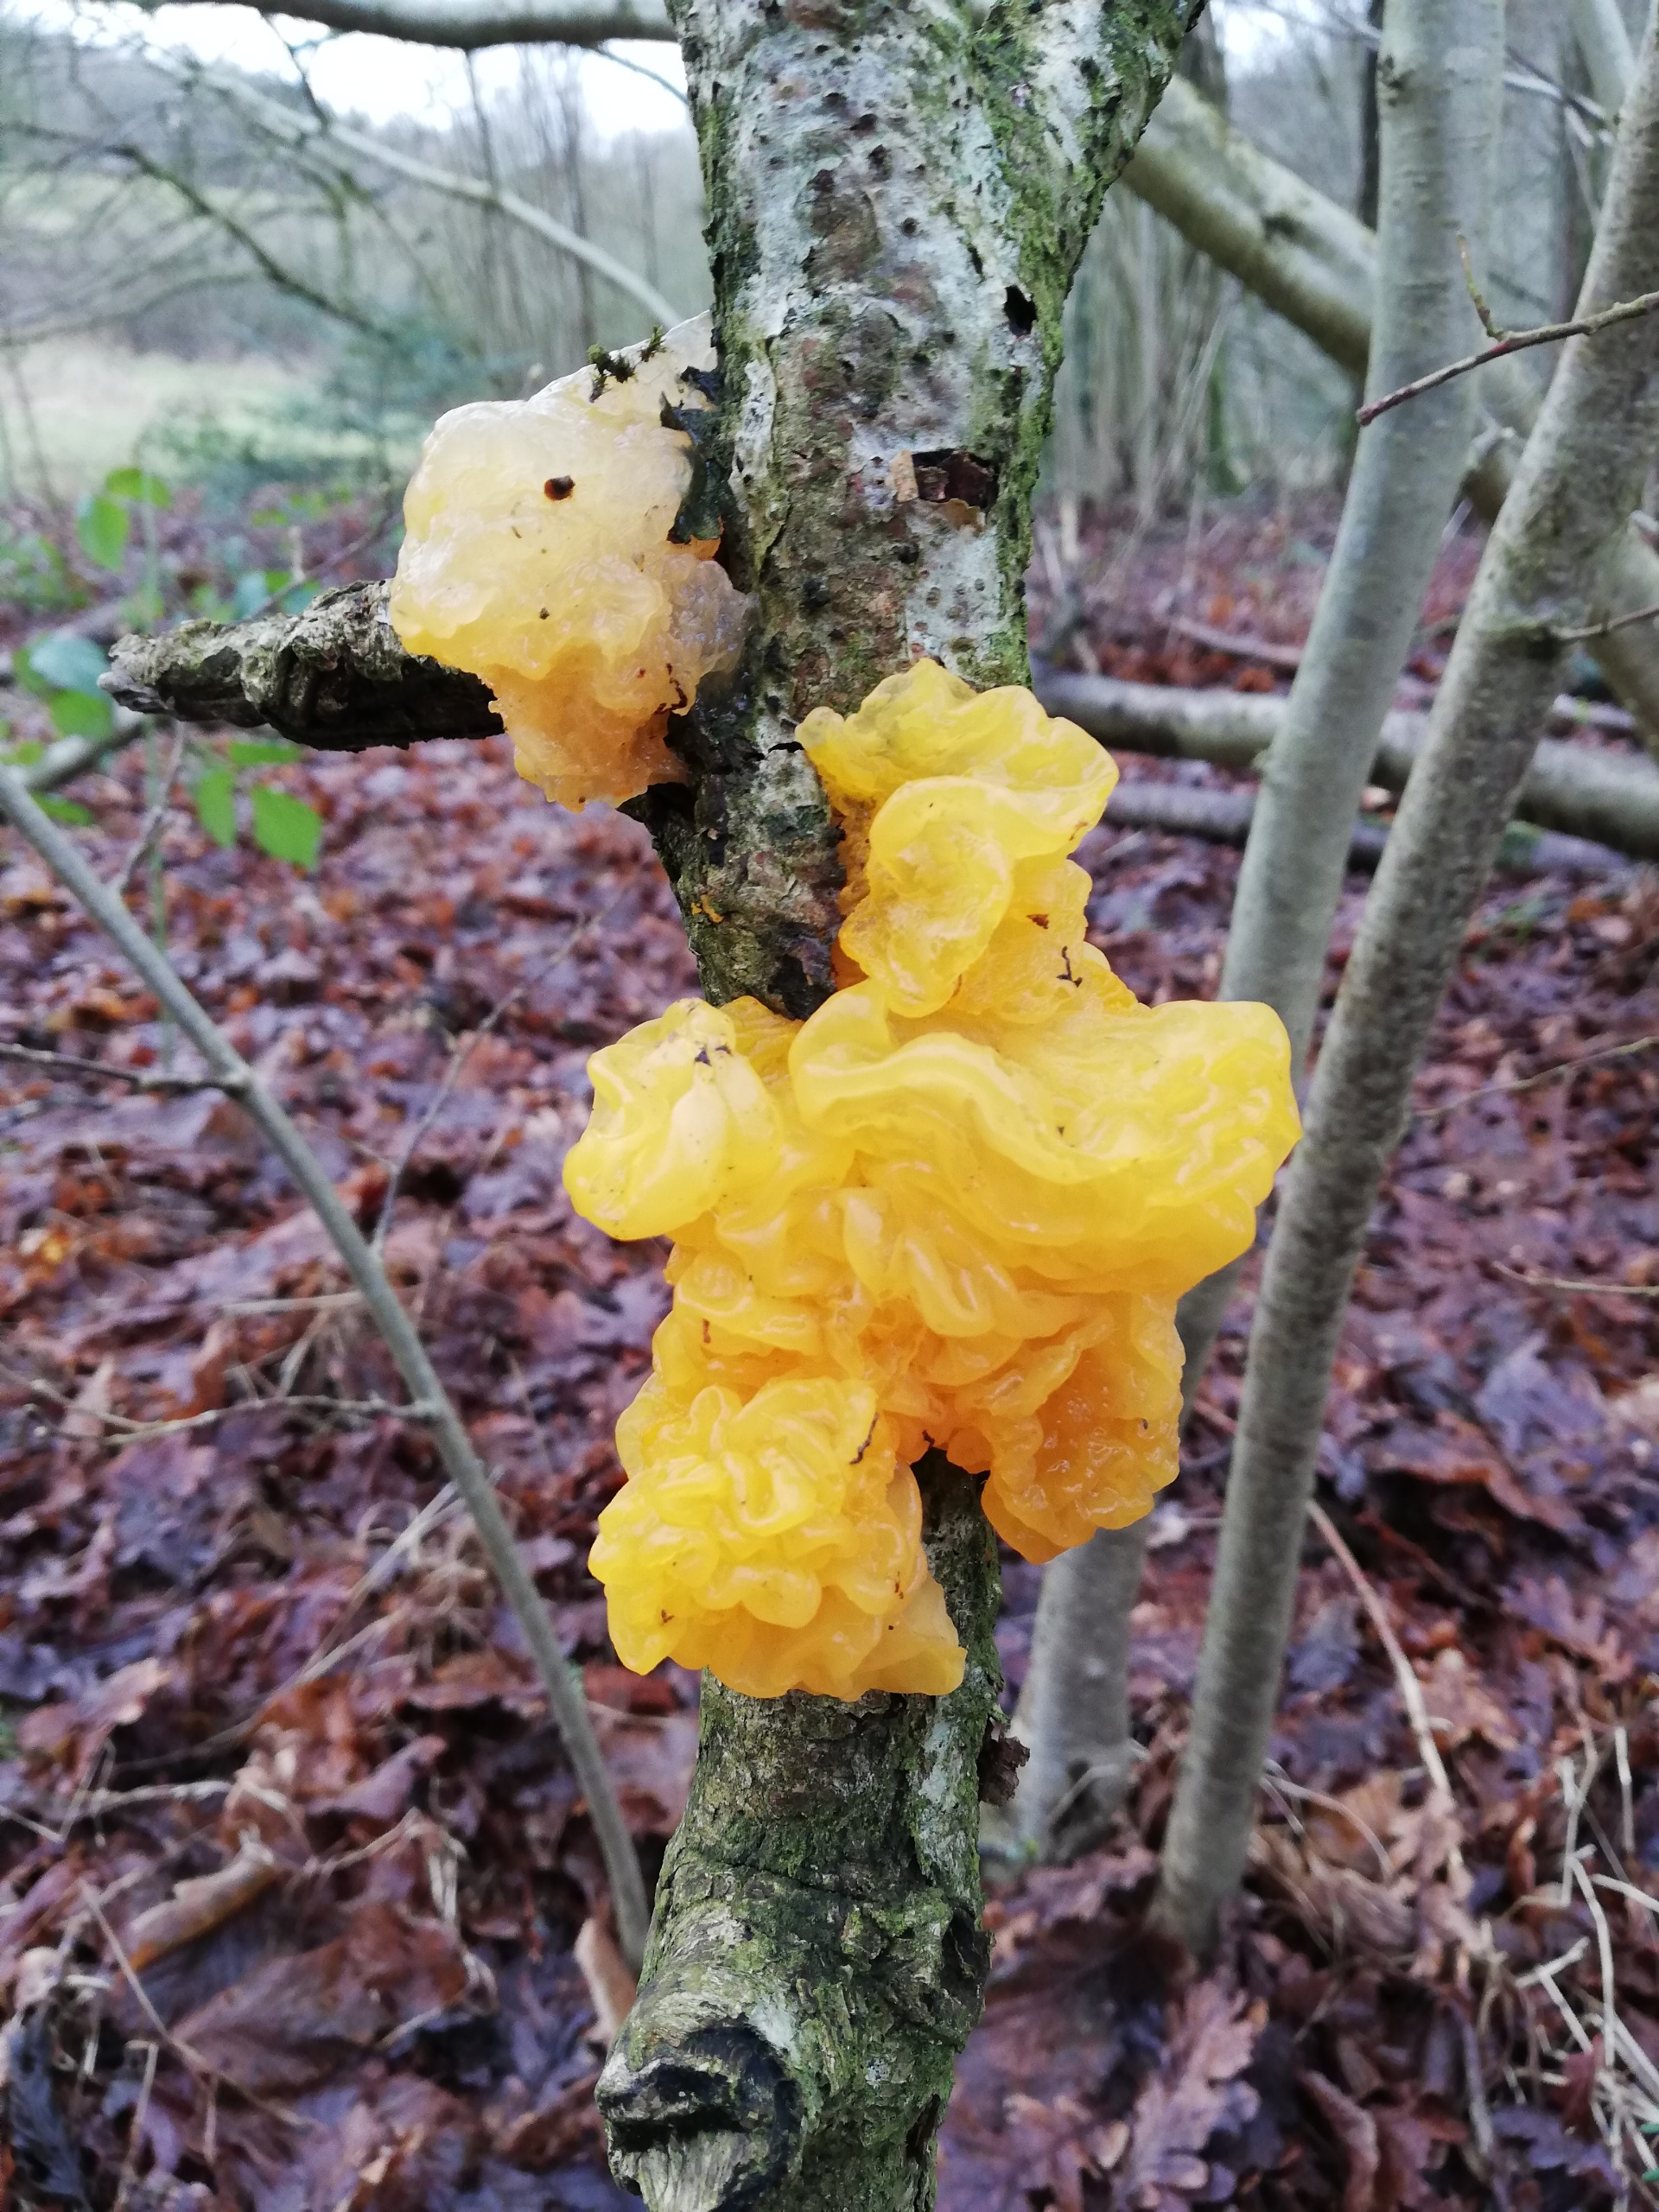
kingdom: Fungi
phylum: Basidiomycota
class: Tremellomycetes
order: Tremellales
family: Tremellaceae
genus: Tremella
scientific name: Tremella mesenterica
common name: Gul bævresvamp
